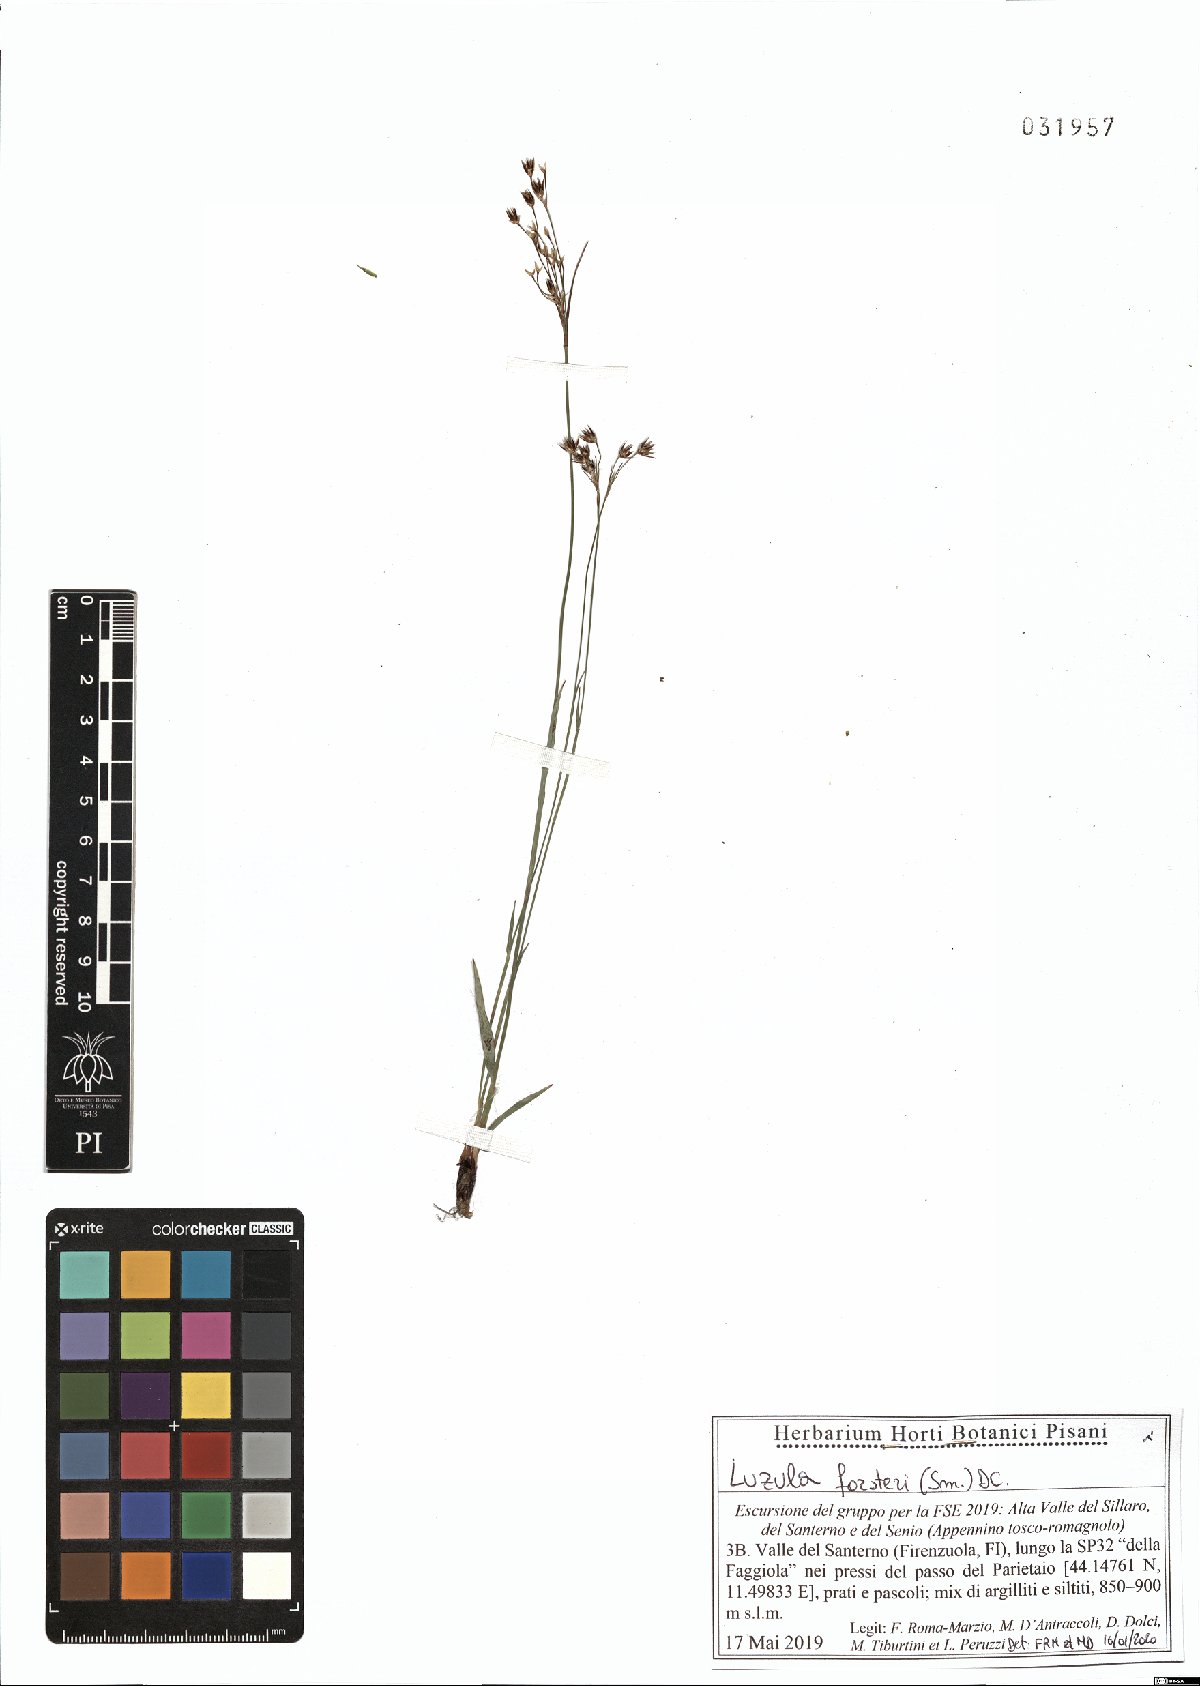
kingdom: Plantae
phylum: Tracheophyta
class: Liliopsida
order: Poales
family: Juncaceae
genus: Luzula
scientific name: Luzula forsteri
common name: Southern wood-rush
